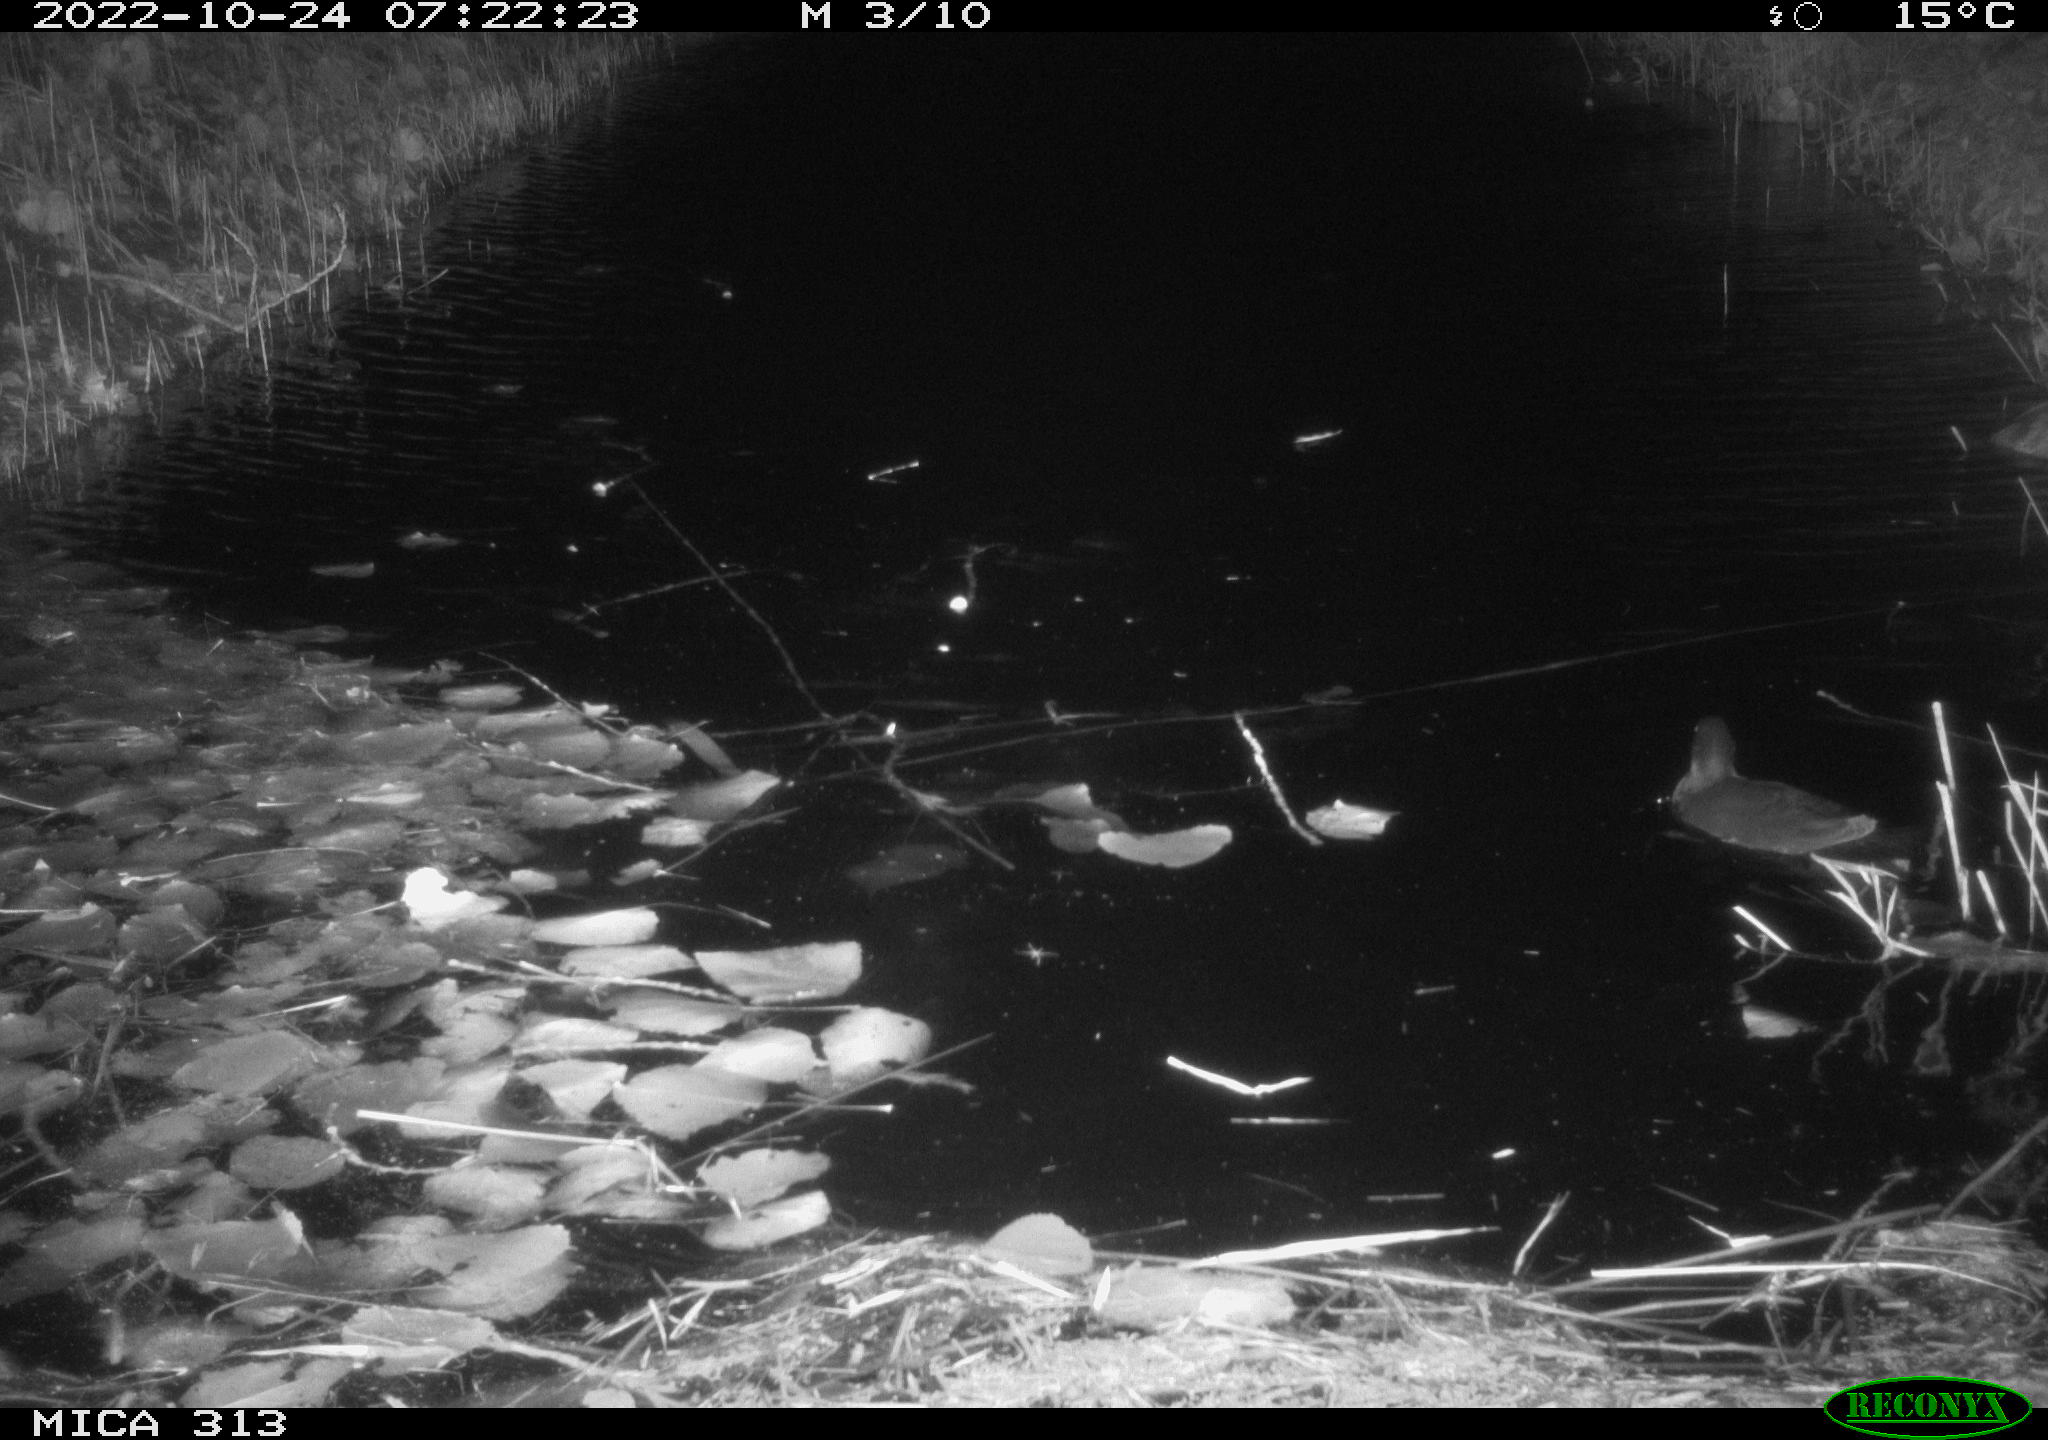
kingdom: Animalia
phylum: Chordata
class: Aves
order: Anseriformes
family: Anatidae
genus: Anas
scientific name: Anas
